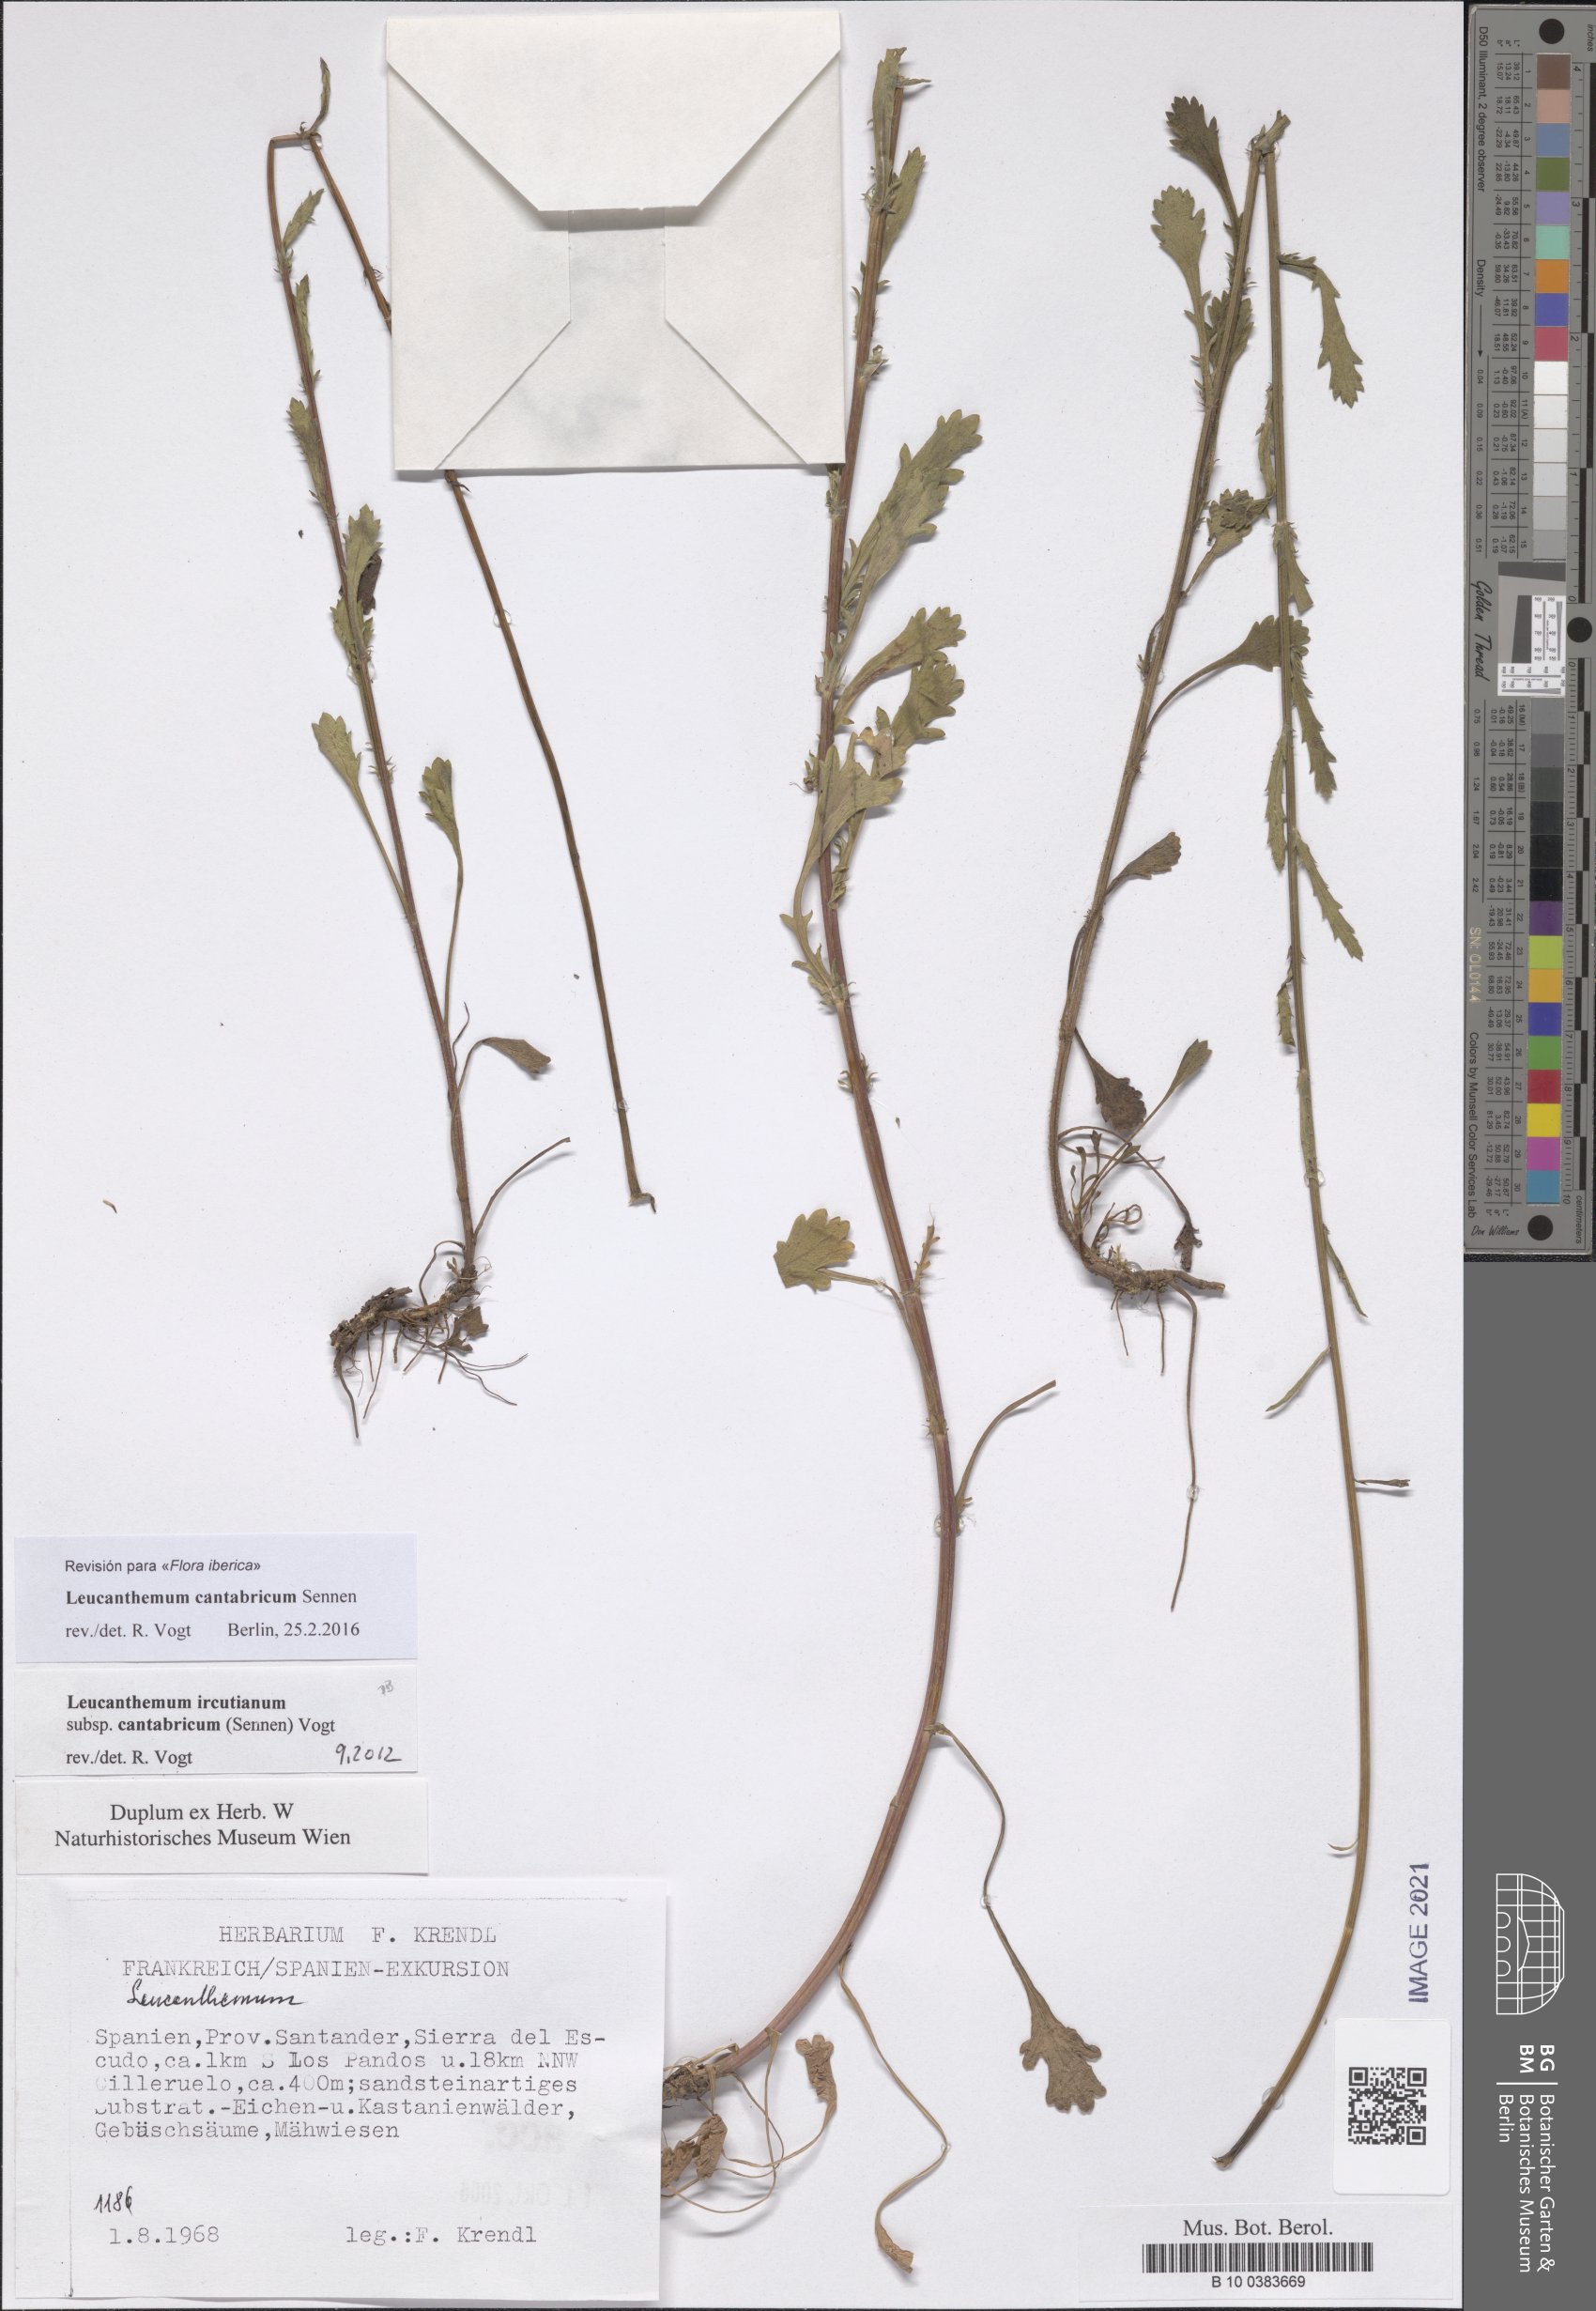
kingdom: Plantae
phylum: Tracheophyta
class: Magnoliopsida
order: Asterales
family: Asteraceae
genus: Leucanthemum
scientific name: Leucanthemum cantabricum
